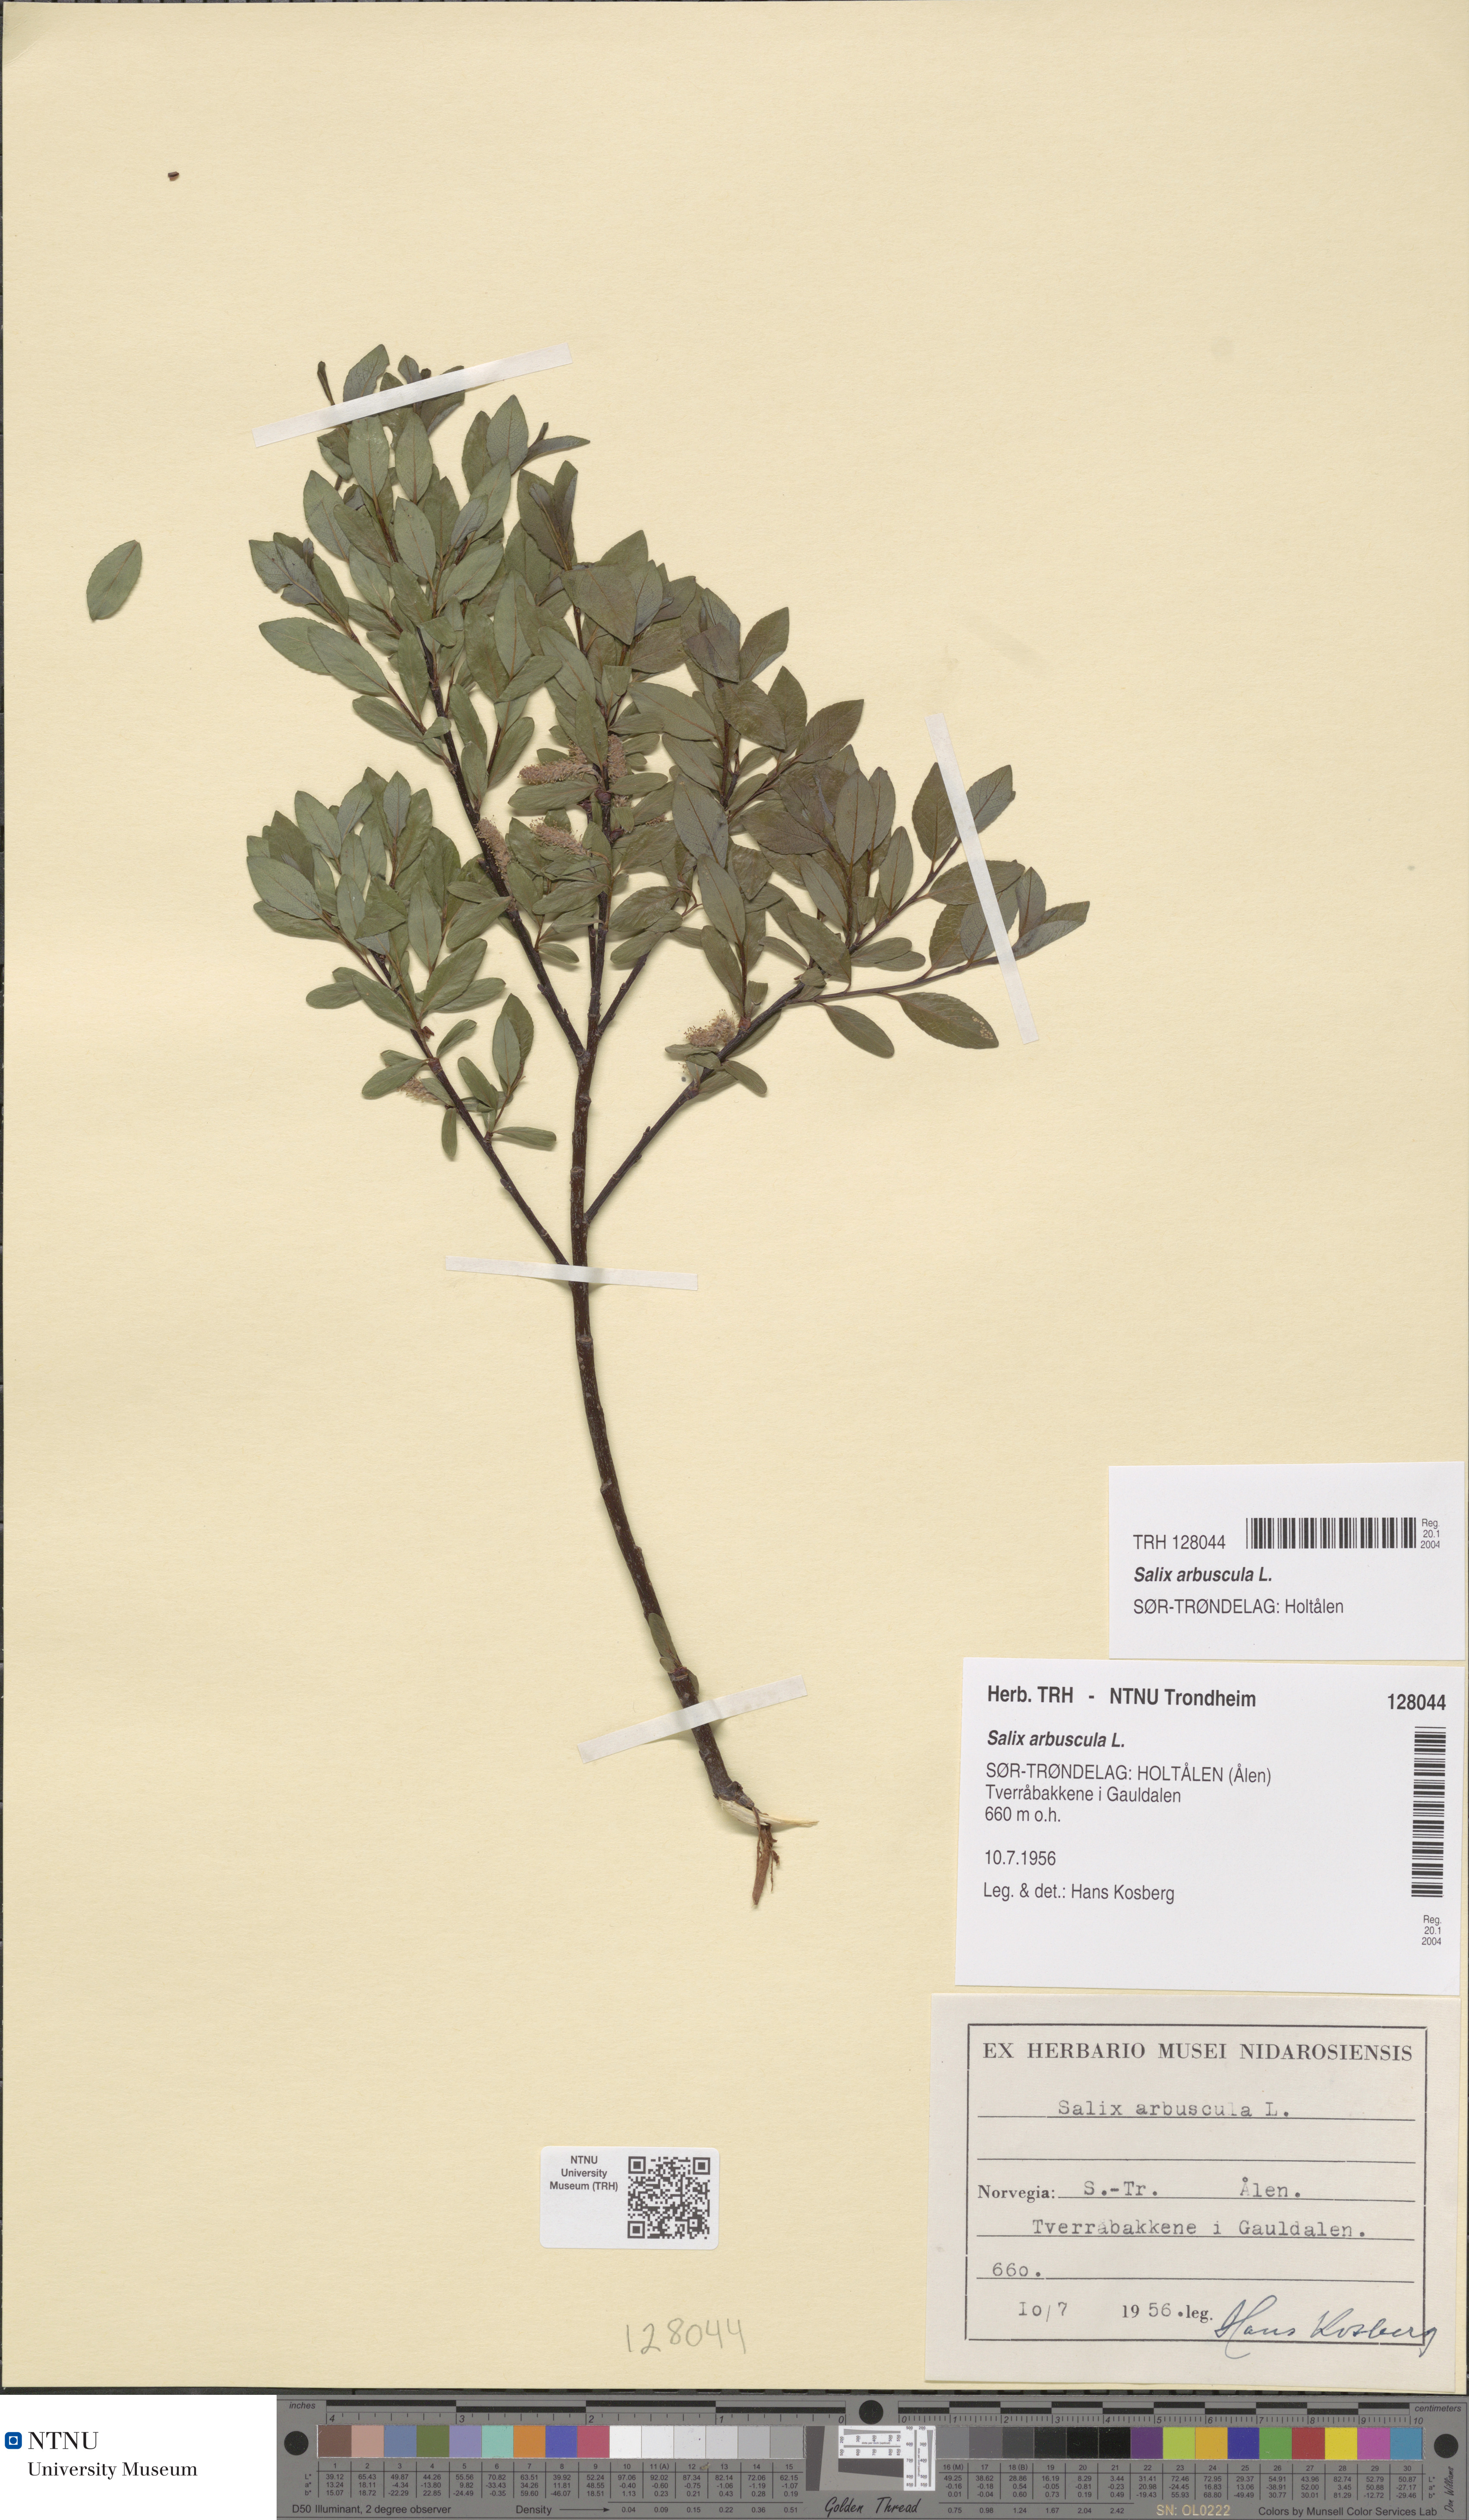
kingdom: Plantae
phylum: Tracheophyta
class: Magnoliopsida
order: Malpighiales
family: Salicaceae
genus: Salix
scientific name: Salix arbuscula
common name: Mountain willow
